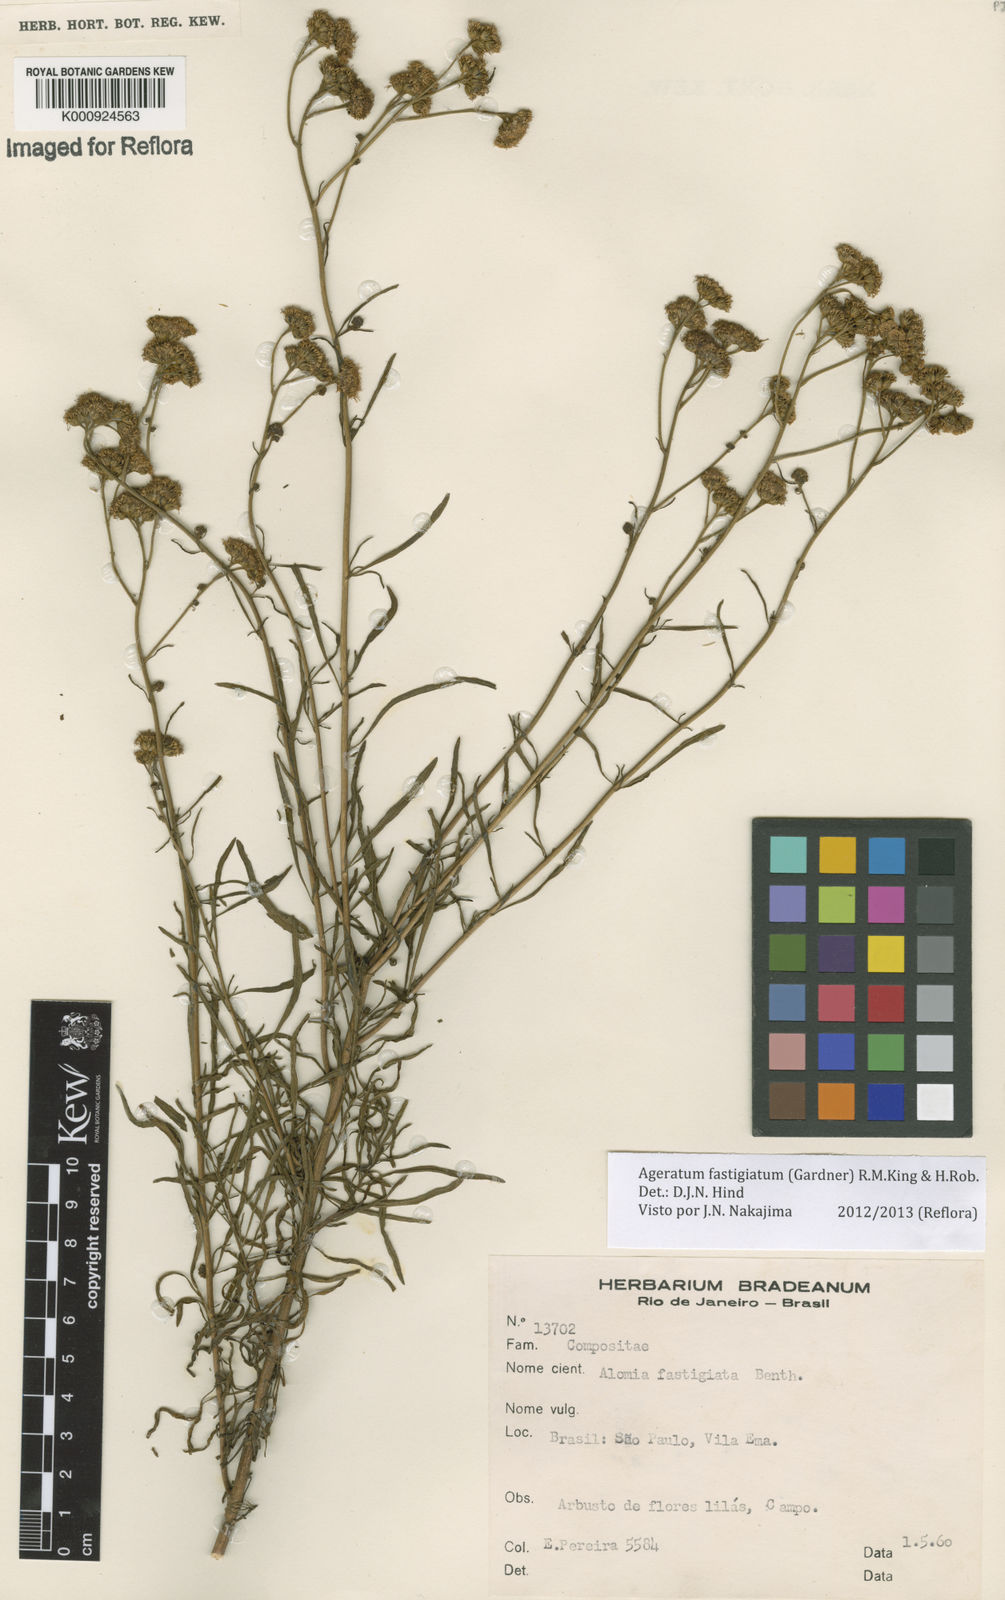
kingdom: Plantae
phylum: Tracheophyta
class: Magnoliopsida
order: Asterales
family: Asteraceae
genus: Ageratum
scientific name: Ageratum fastigiatum
